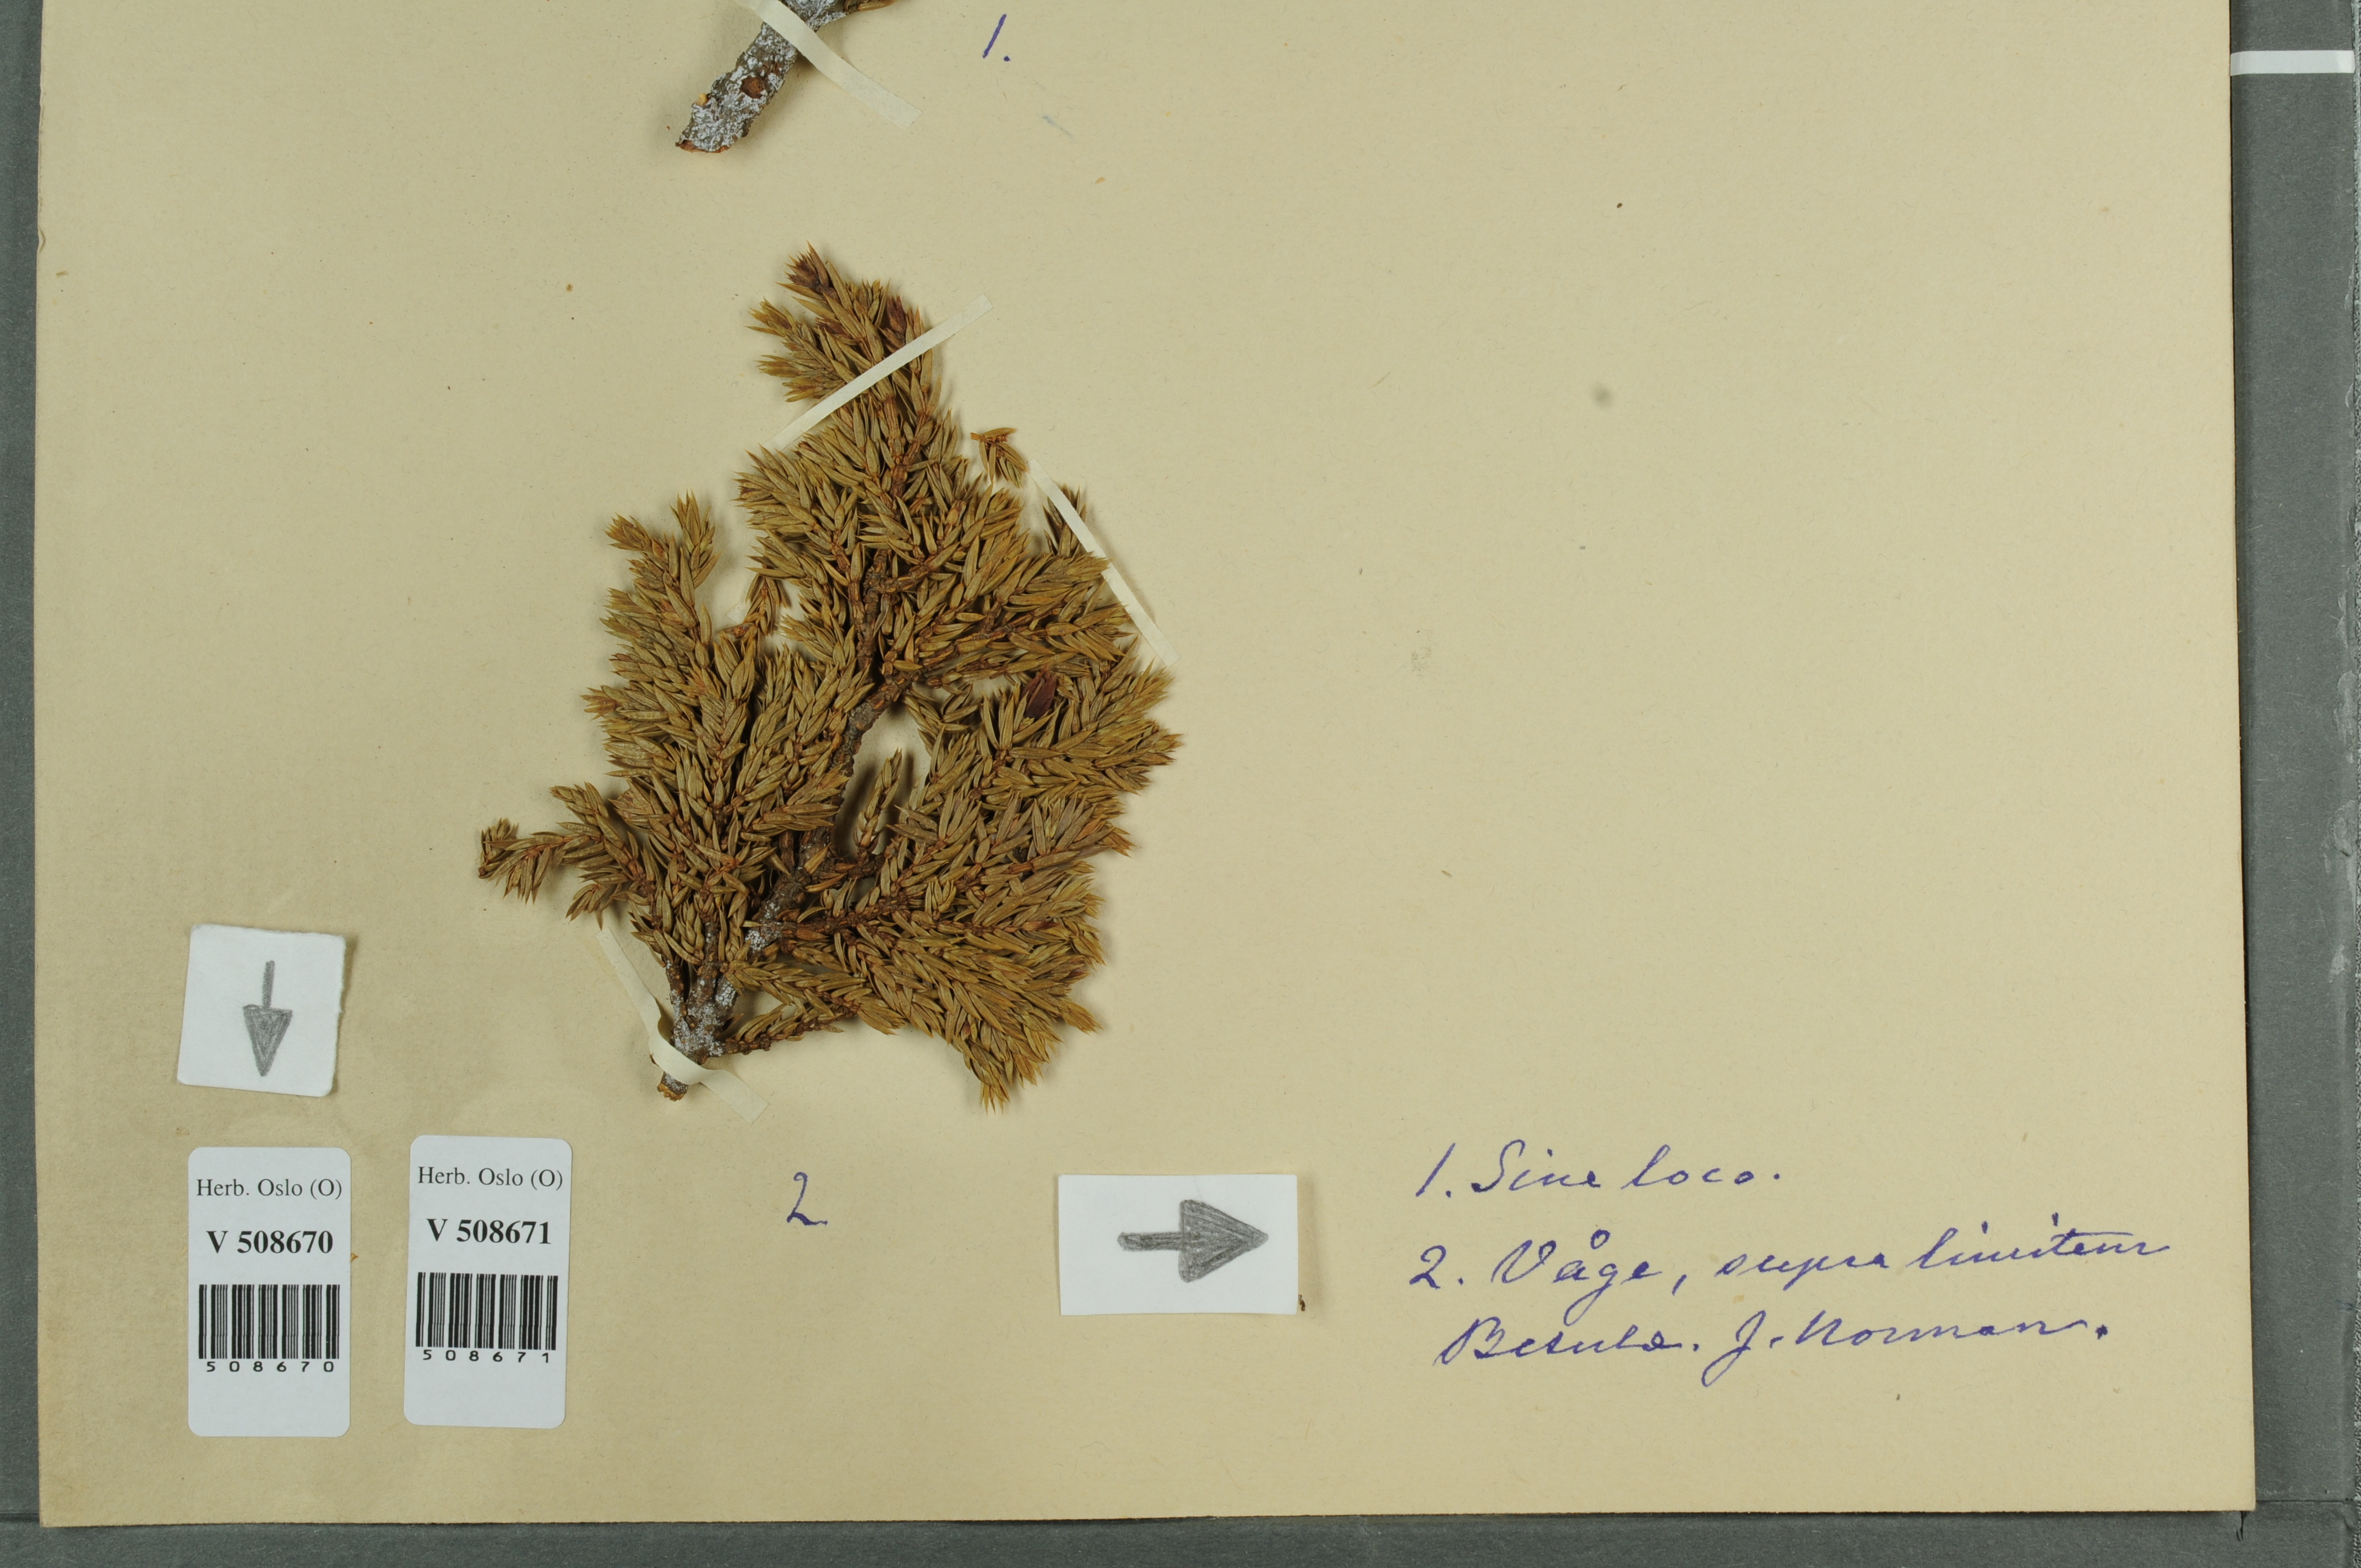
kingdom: Plantae
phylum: Tracheophyta
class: Pinopsida
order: Pinales
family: Cupressaceae
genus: Juniperus
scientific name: Juniperus communis
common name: Common juniper
